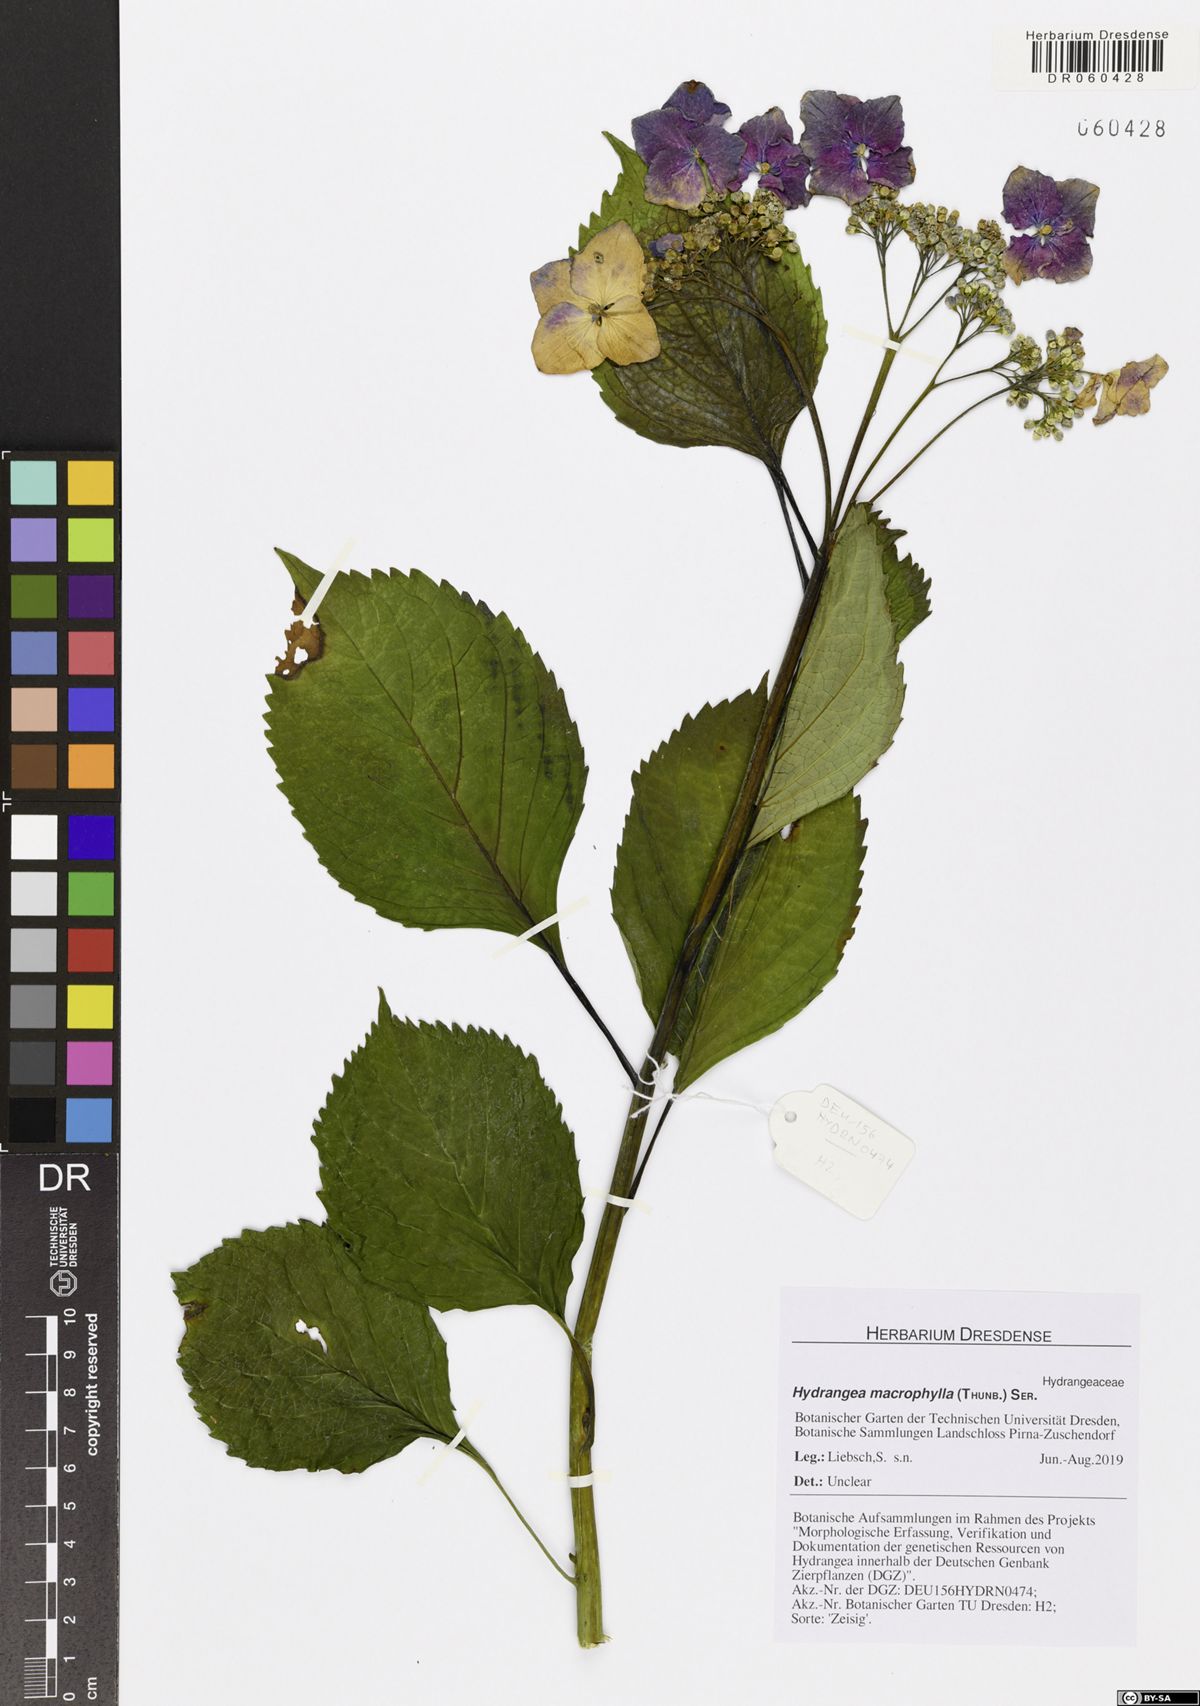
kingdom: Plantae
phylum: Tracheophyta
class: Magnoliopsida
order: Cornales
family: Hydrangeaceae
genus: Hydrangea
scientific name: Hydrangea macrophylla
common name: Hydrangea
